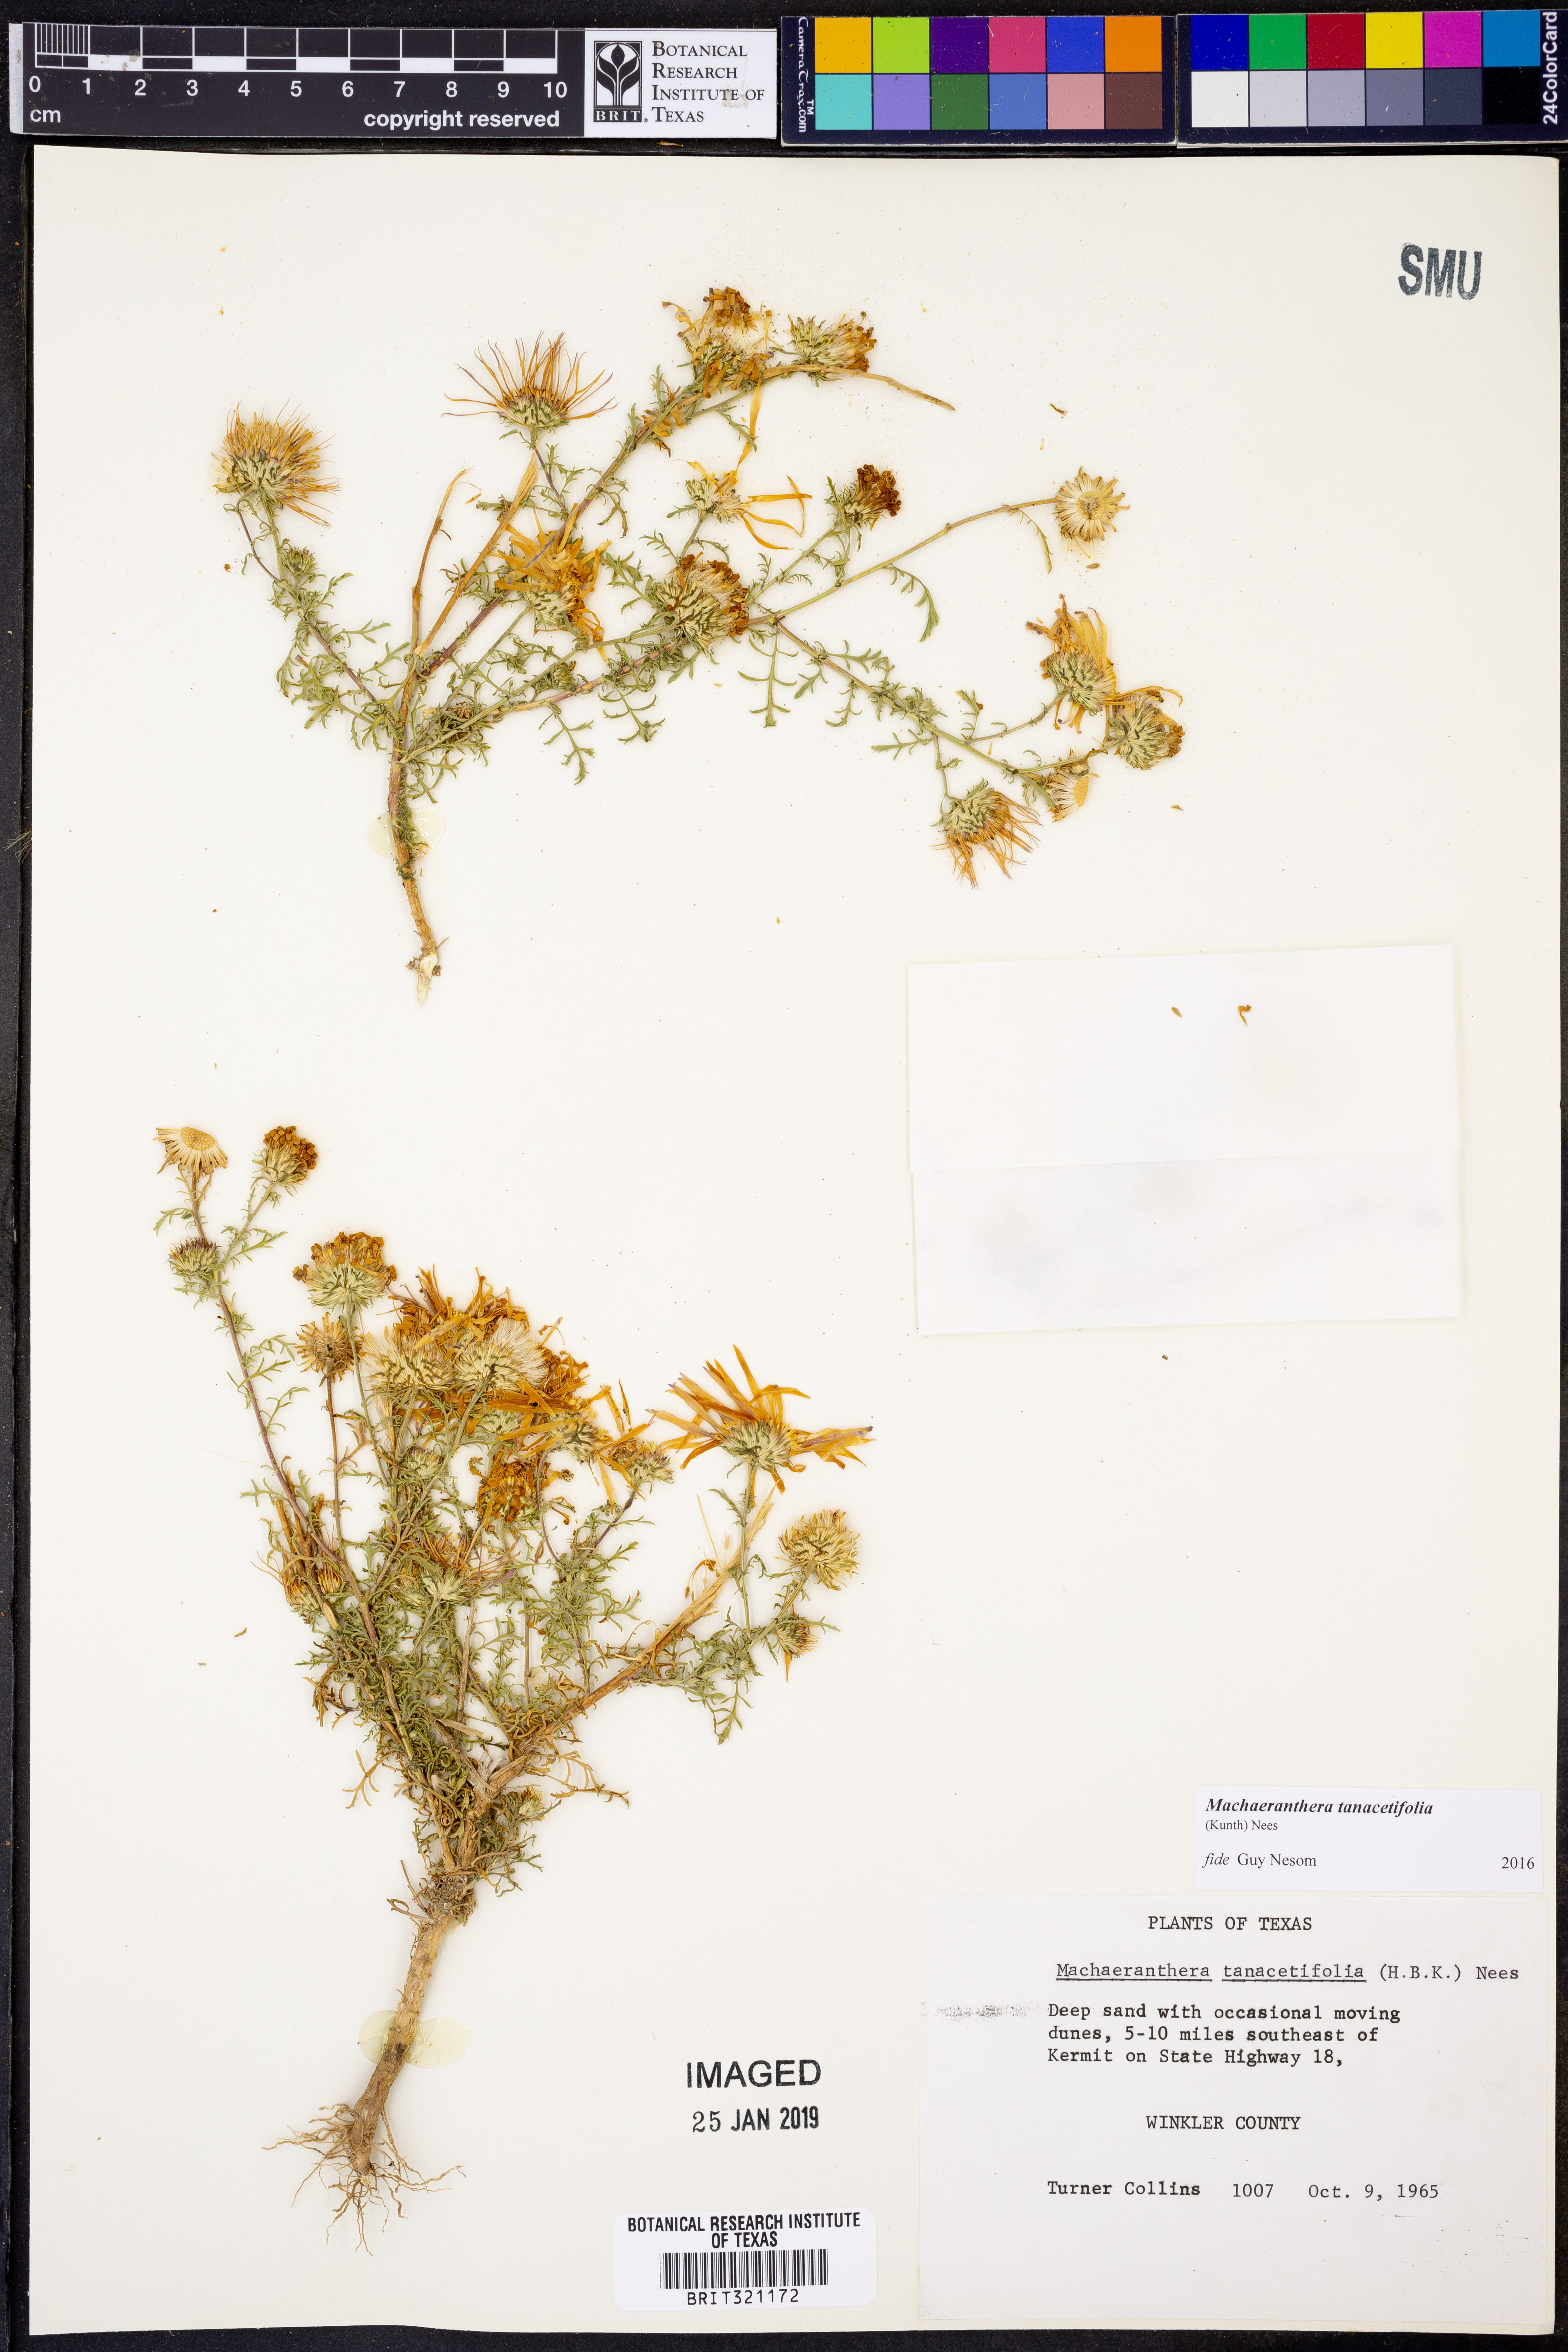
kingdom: Plantae
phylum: Tracheophyta
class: Magnoliopsida
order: Asterales
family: Asteraceae
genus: Machaeranthera
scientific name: Machaeranthera tanacetifolia
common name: Tansy-aster
